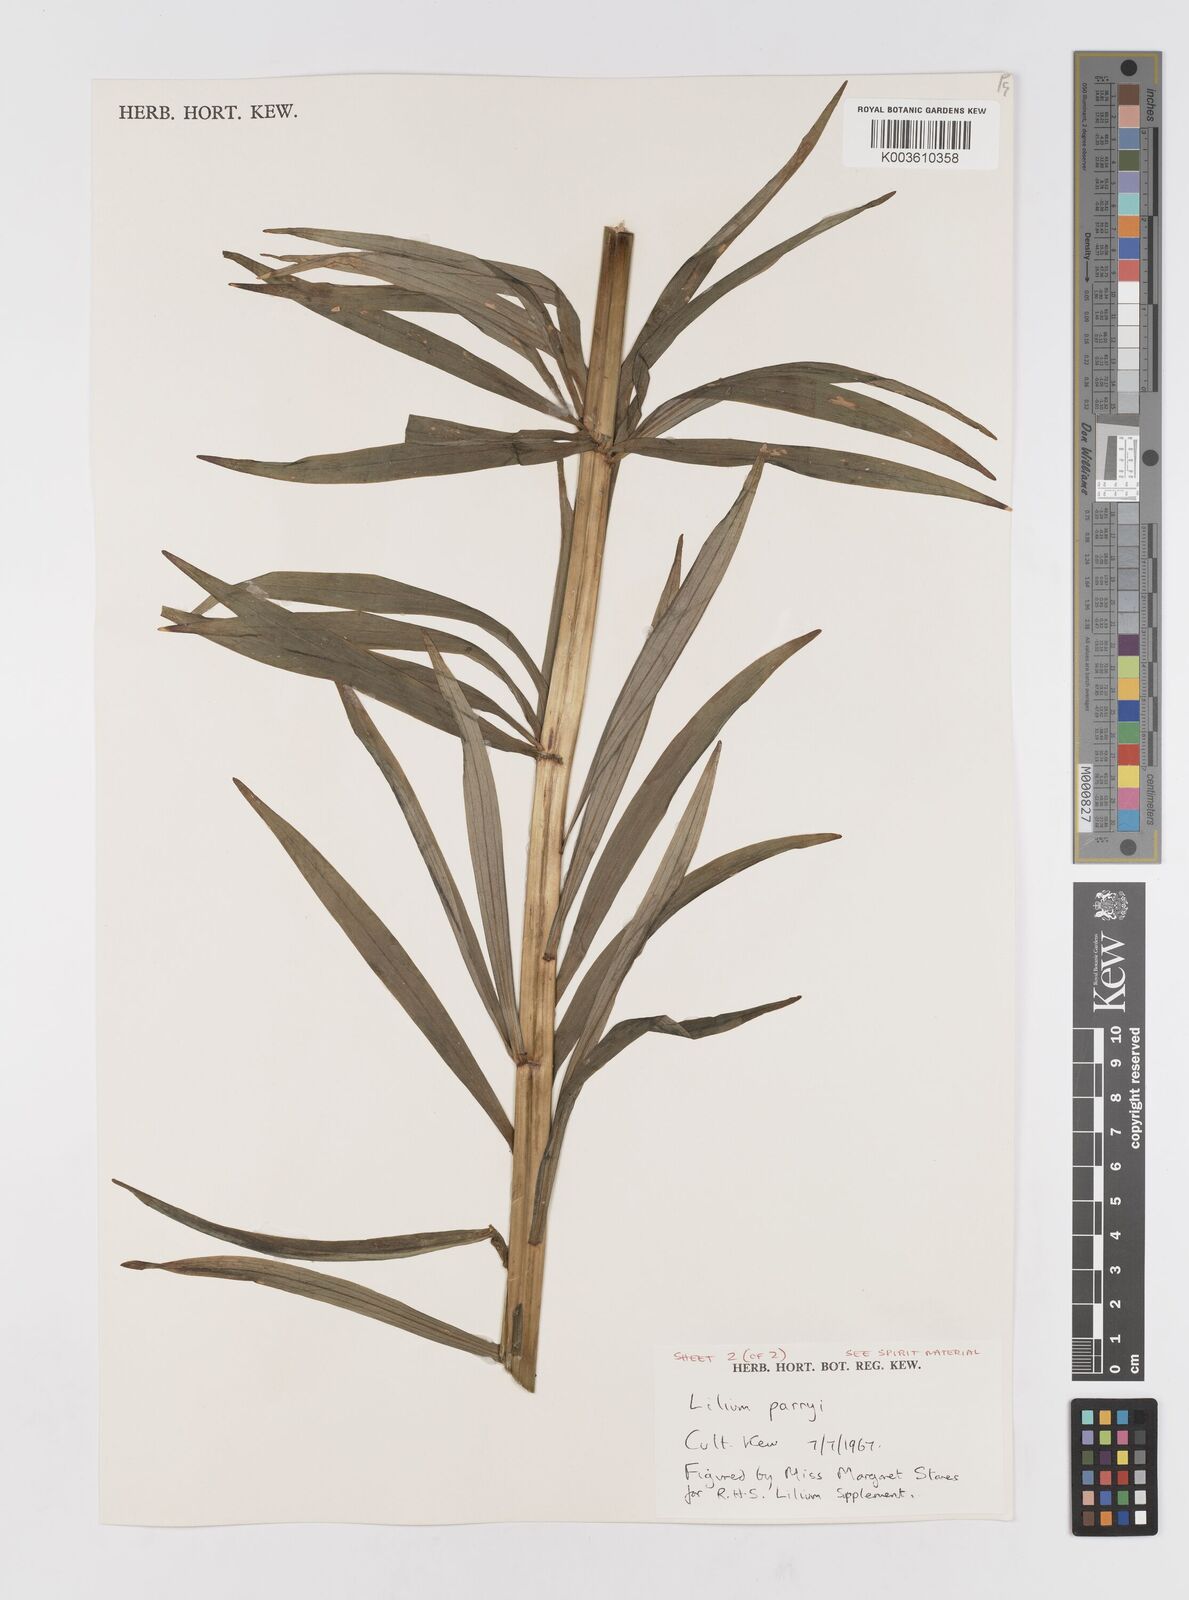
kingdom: Plantae
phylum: Tracheophyta
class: Liliopsida
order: Liliales
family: Liliaceae
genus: Lilium
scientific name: Lilium parryi
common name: Lemon lily
